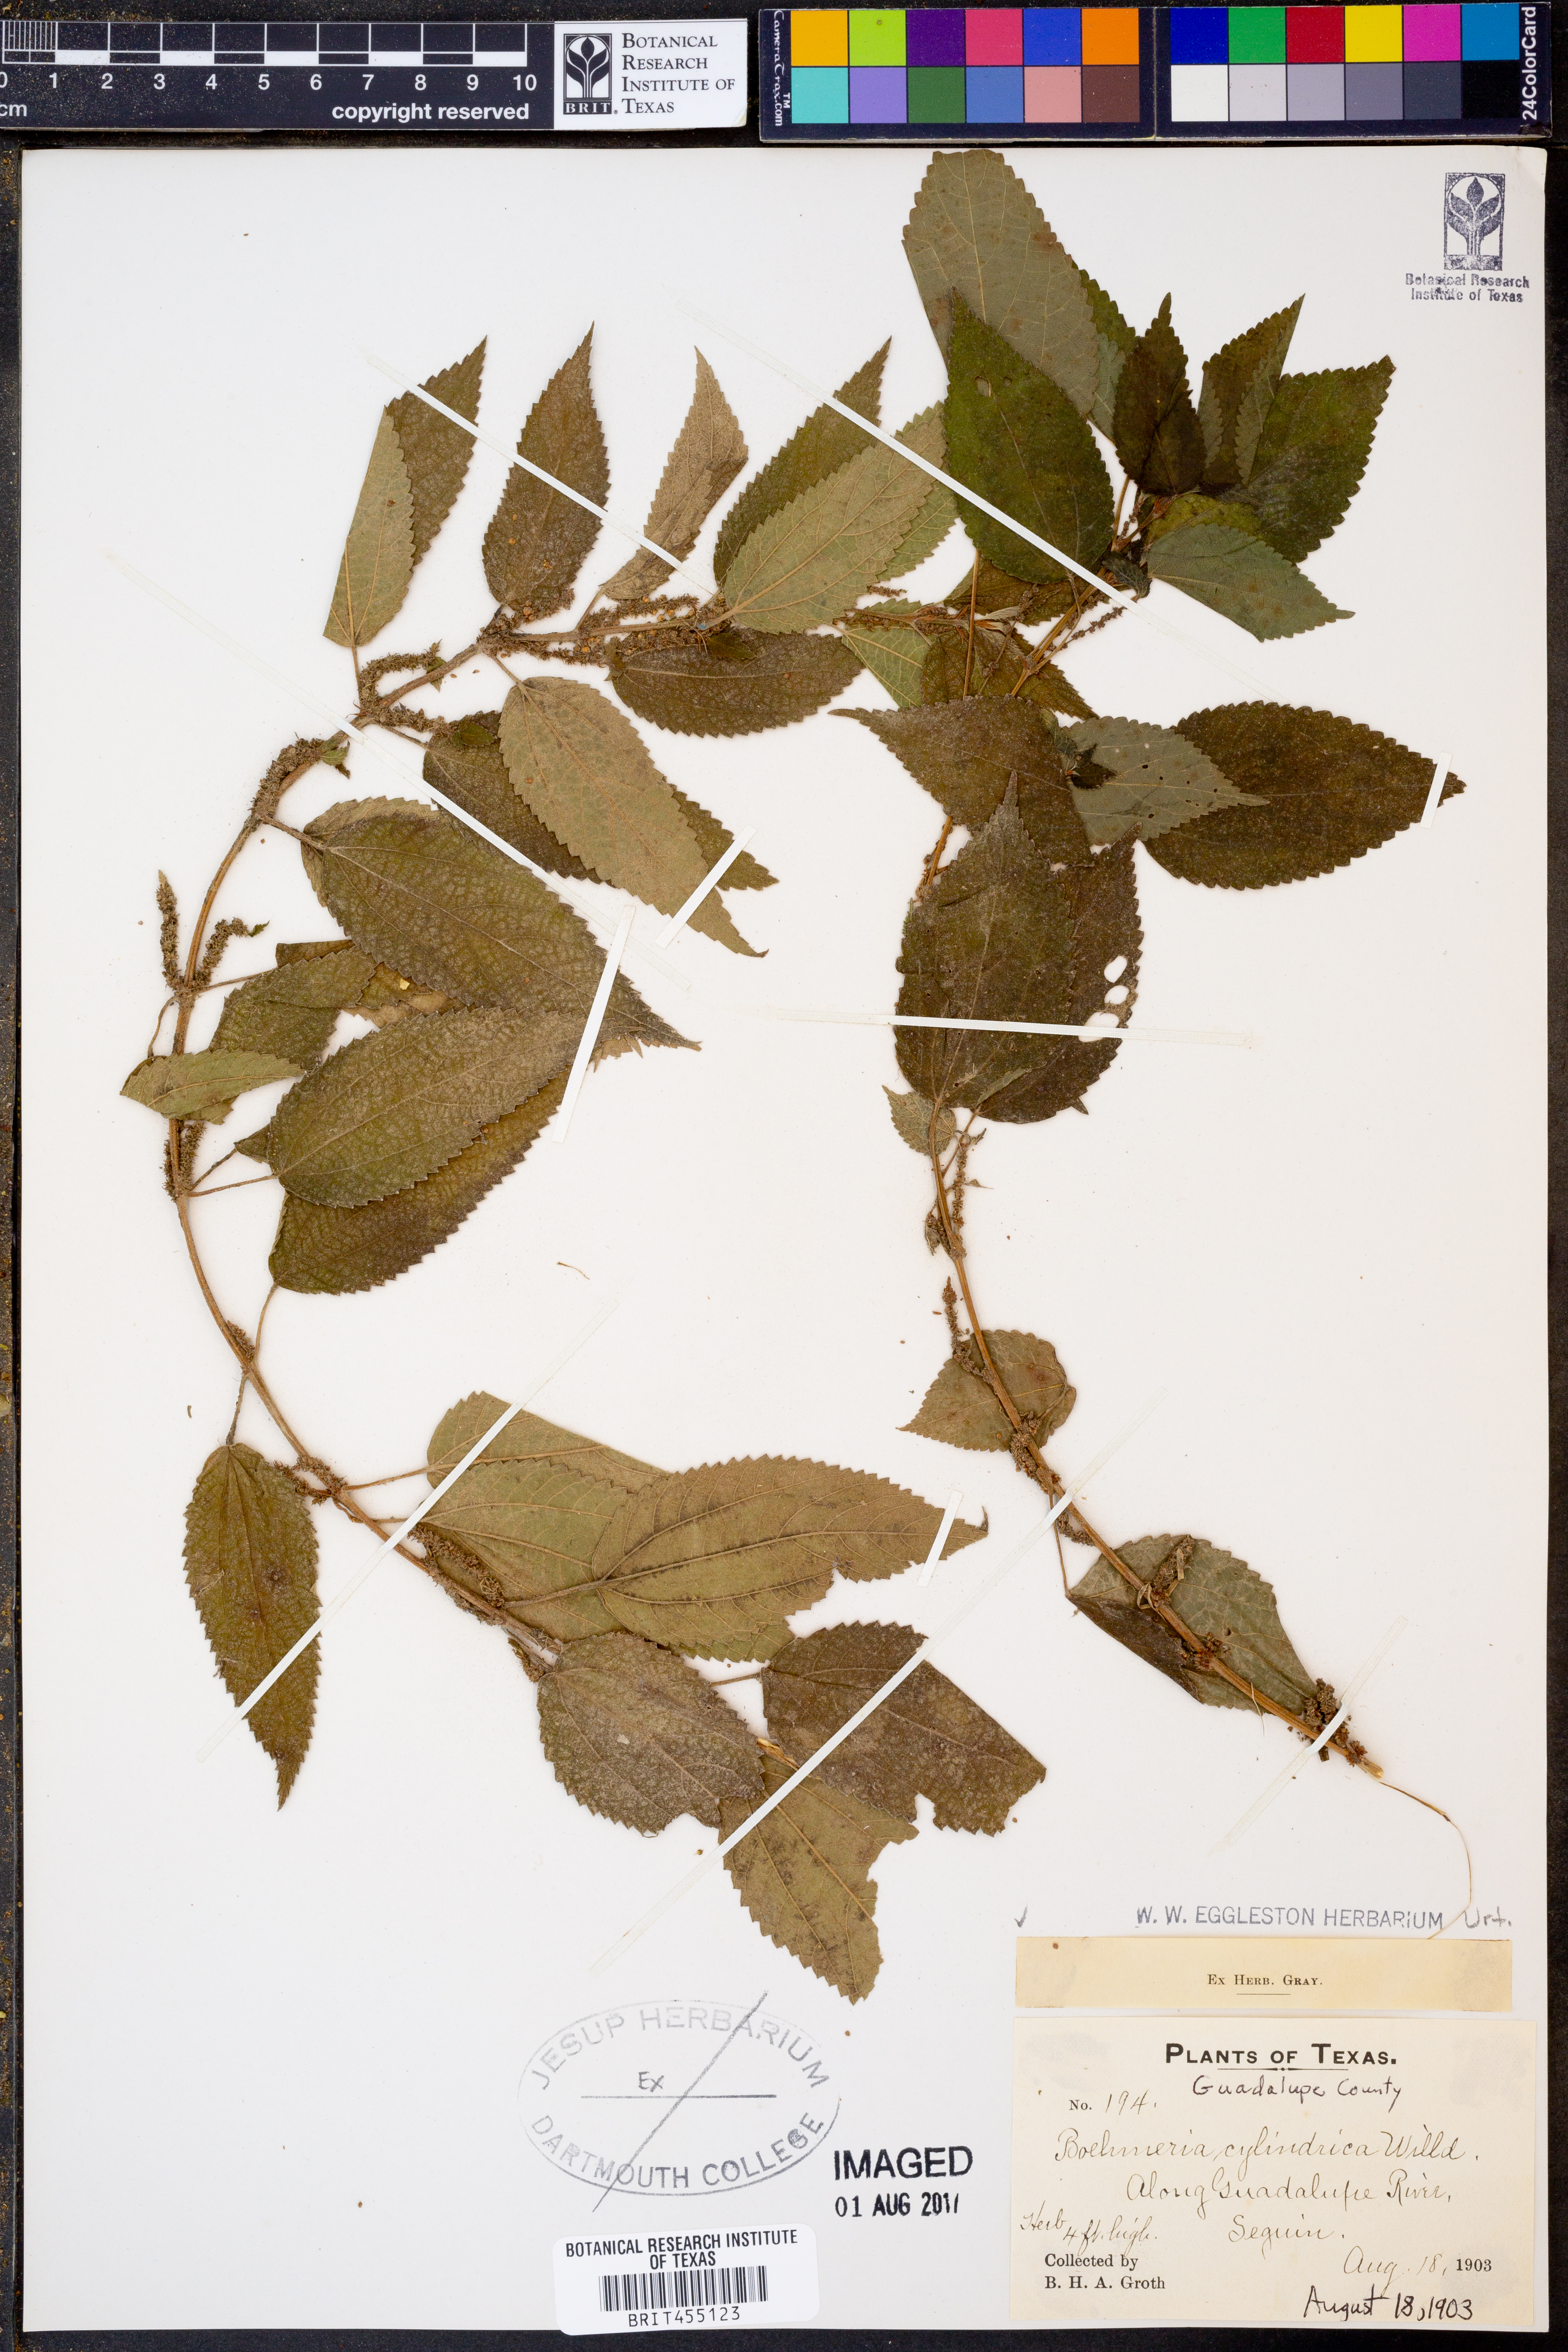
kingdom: Plantae
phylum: Tracheophyta
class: Magnoliopsida
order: Rosales
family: Urticaceae
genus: Boehmeria
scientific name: Boehmeria cylindrica
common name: Bog-hemp
